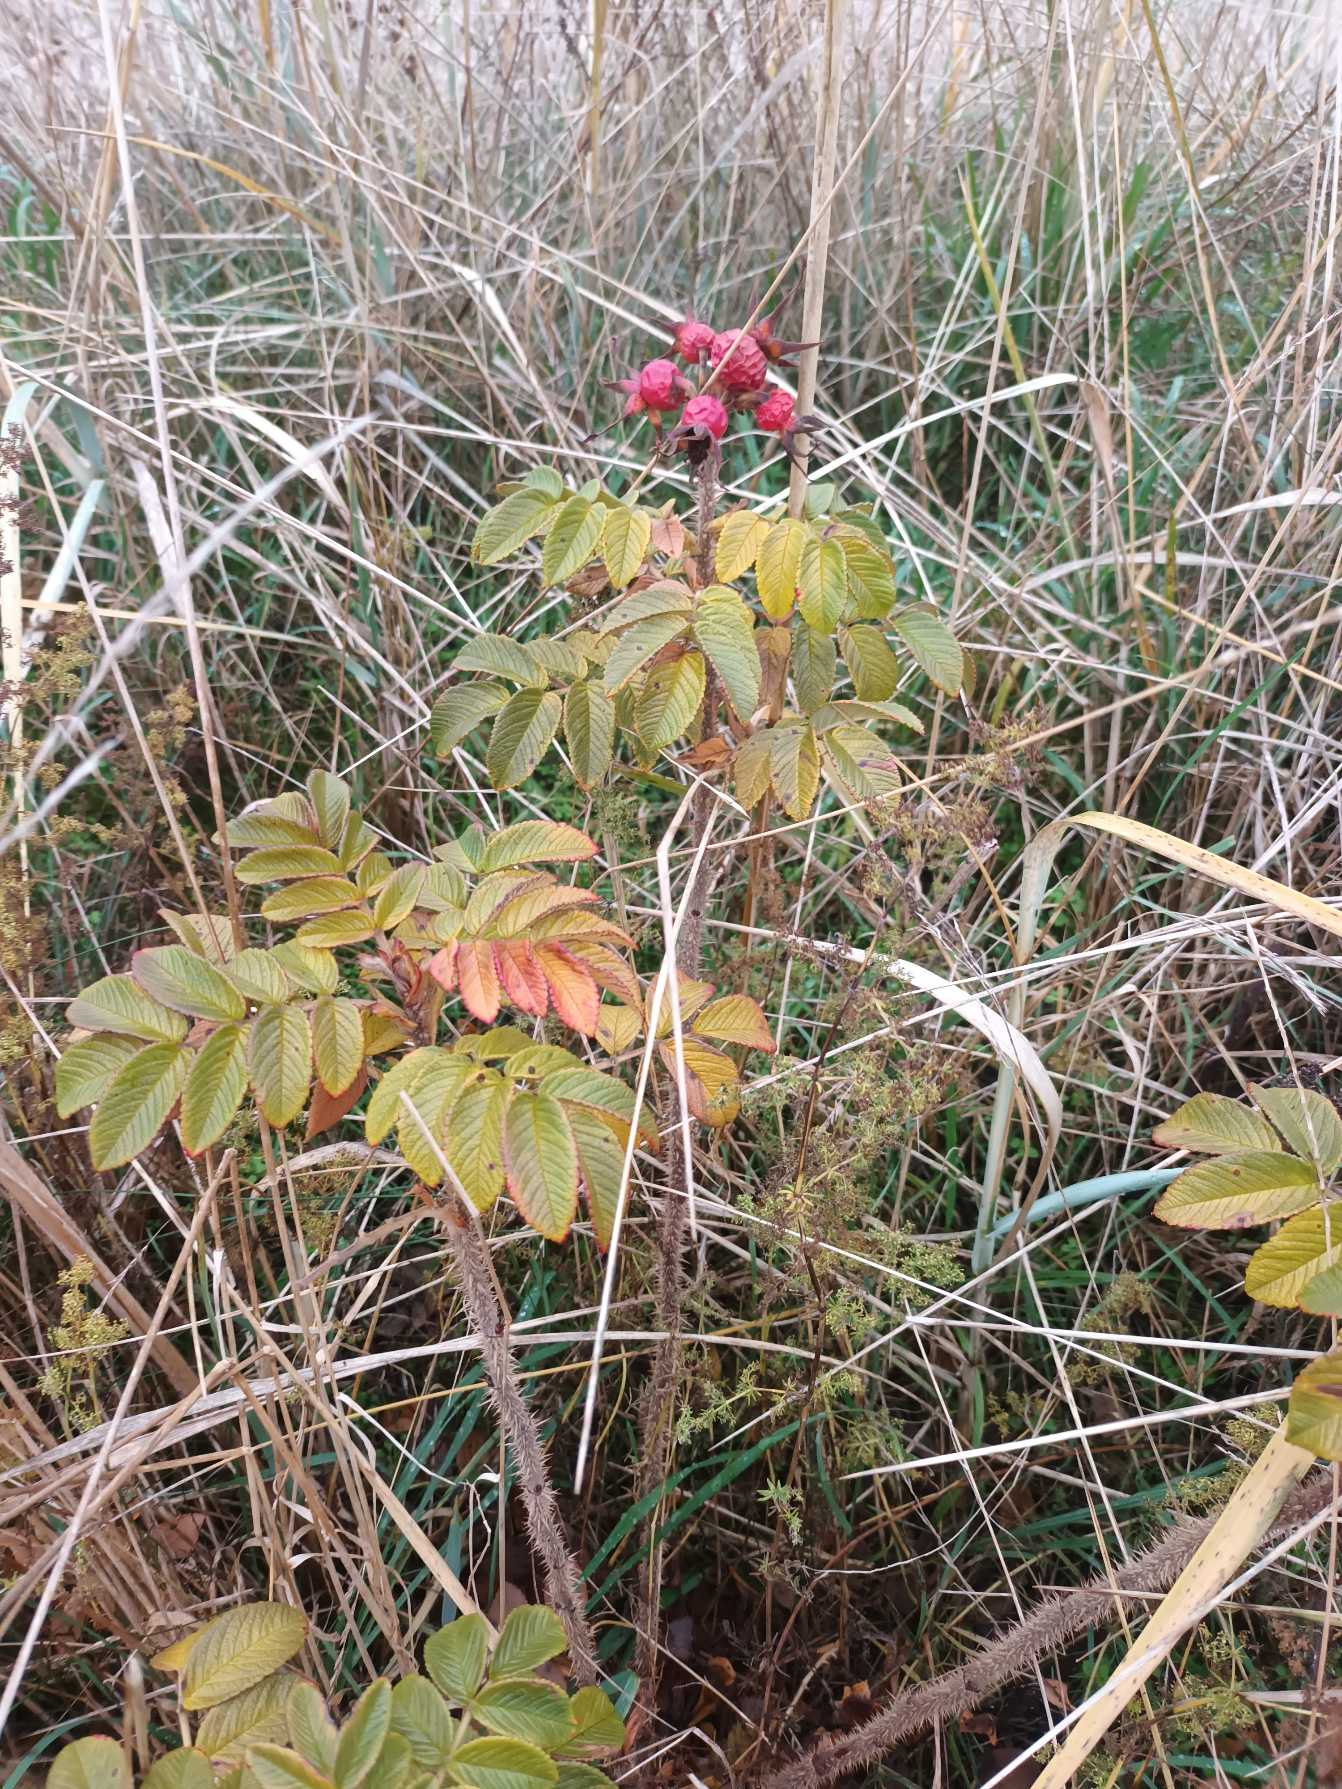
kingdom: Plantae
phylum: Tracheophyta
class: Magnoliopsida
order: Rosales
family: Rosaceae
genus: Rosa
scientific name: Rosa rugosa
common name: Rynket rose
